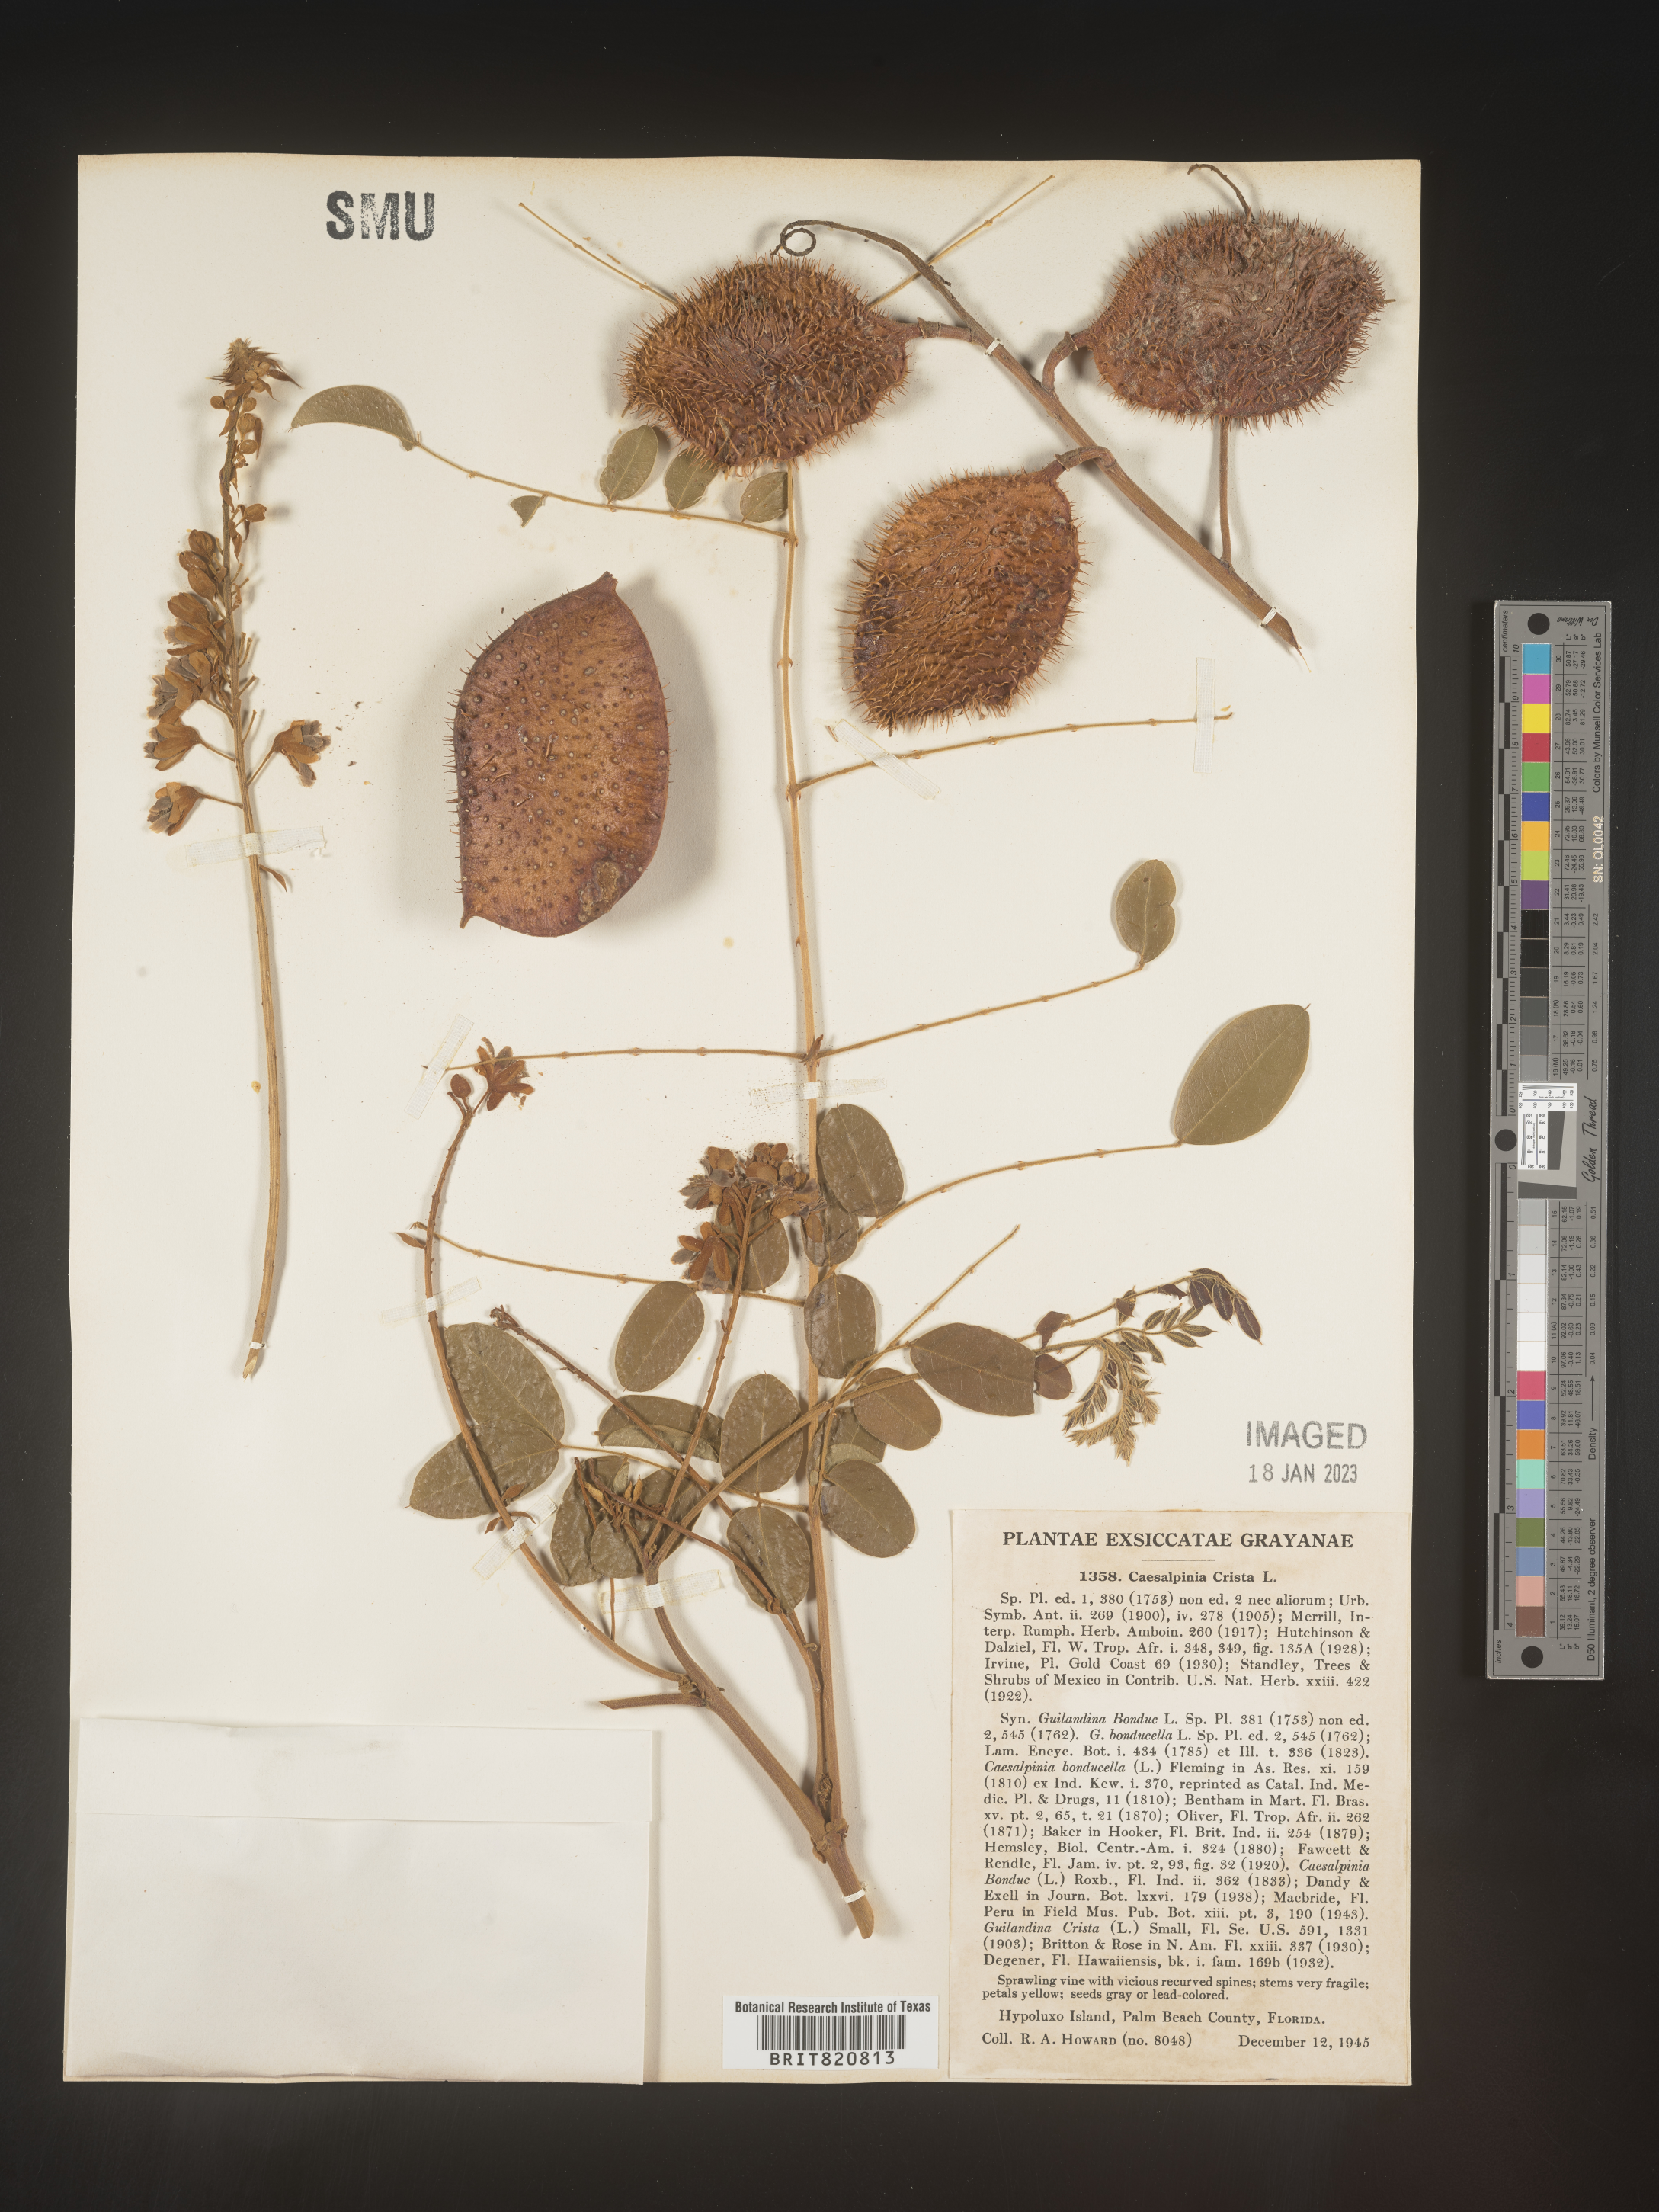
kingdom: Plantae
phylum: Tracheophyta
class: Magnoliopsida
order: Fabales
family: Fabaceae
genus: Guilandina
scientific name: Guilandina
